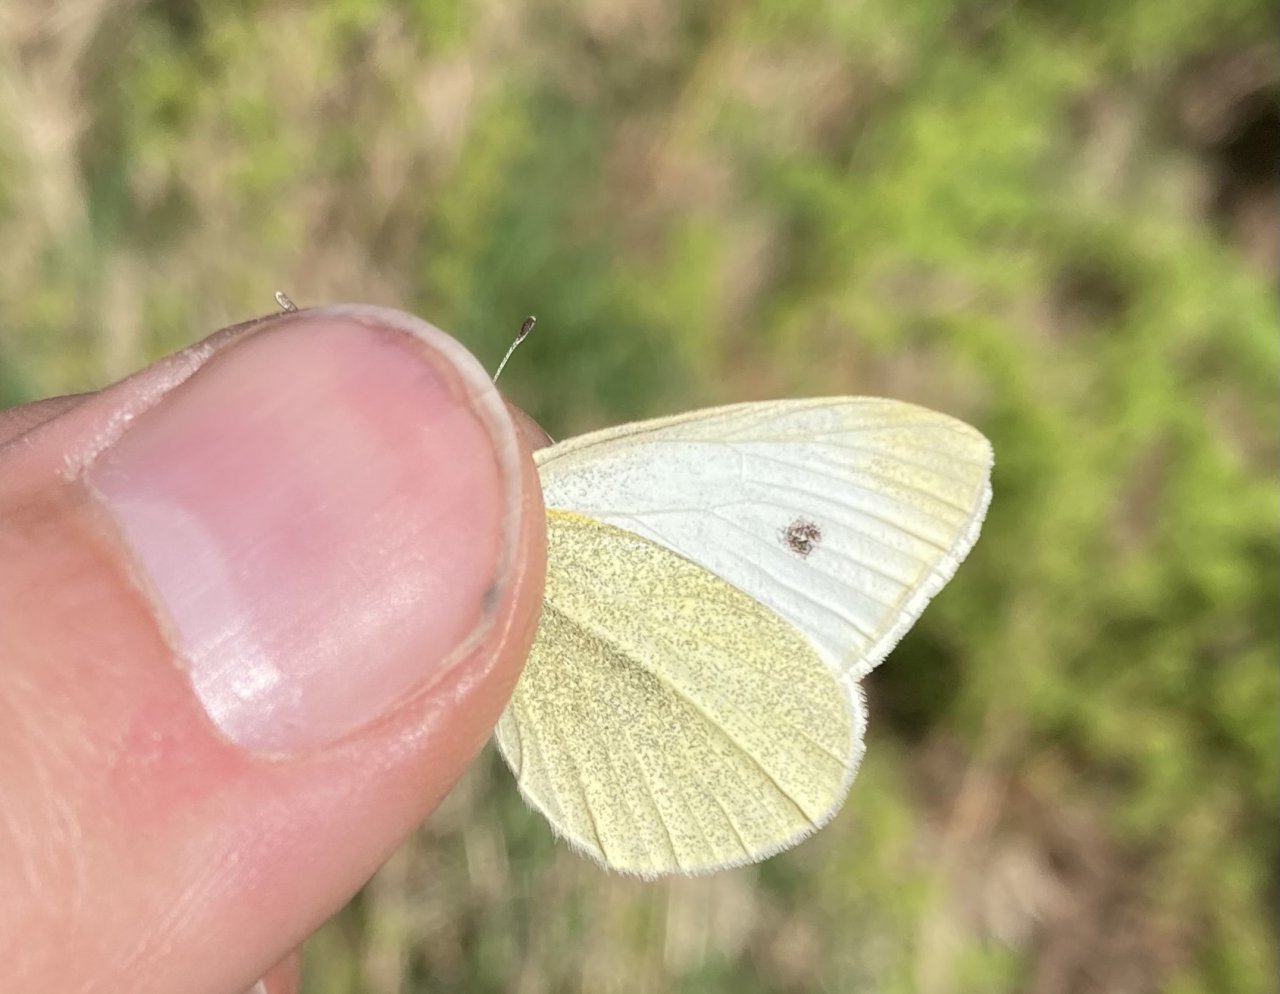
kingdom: Animalia
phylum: Arthropoda
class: Insecta
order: Lepidoptera
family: Pieridae
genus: Pieris
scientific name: Pieris rapae
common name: Cabbage White
